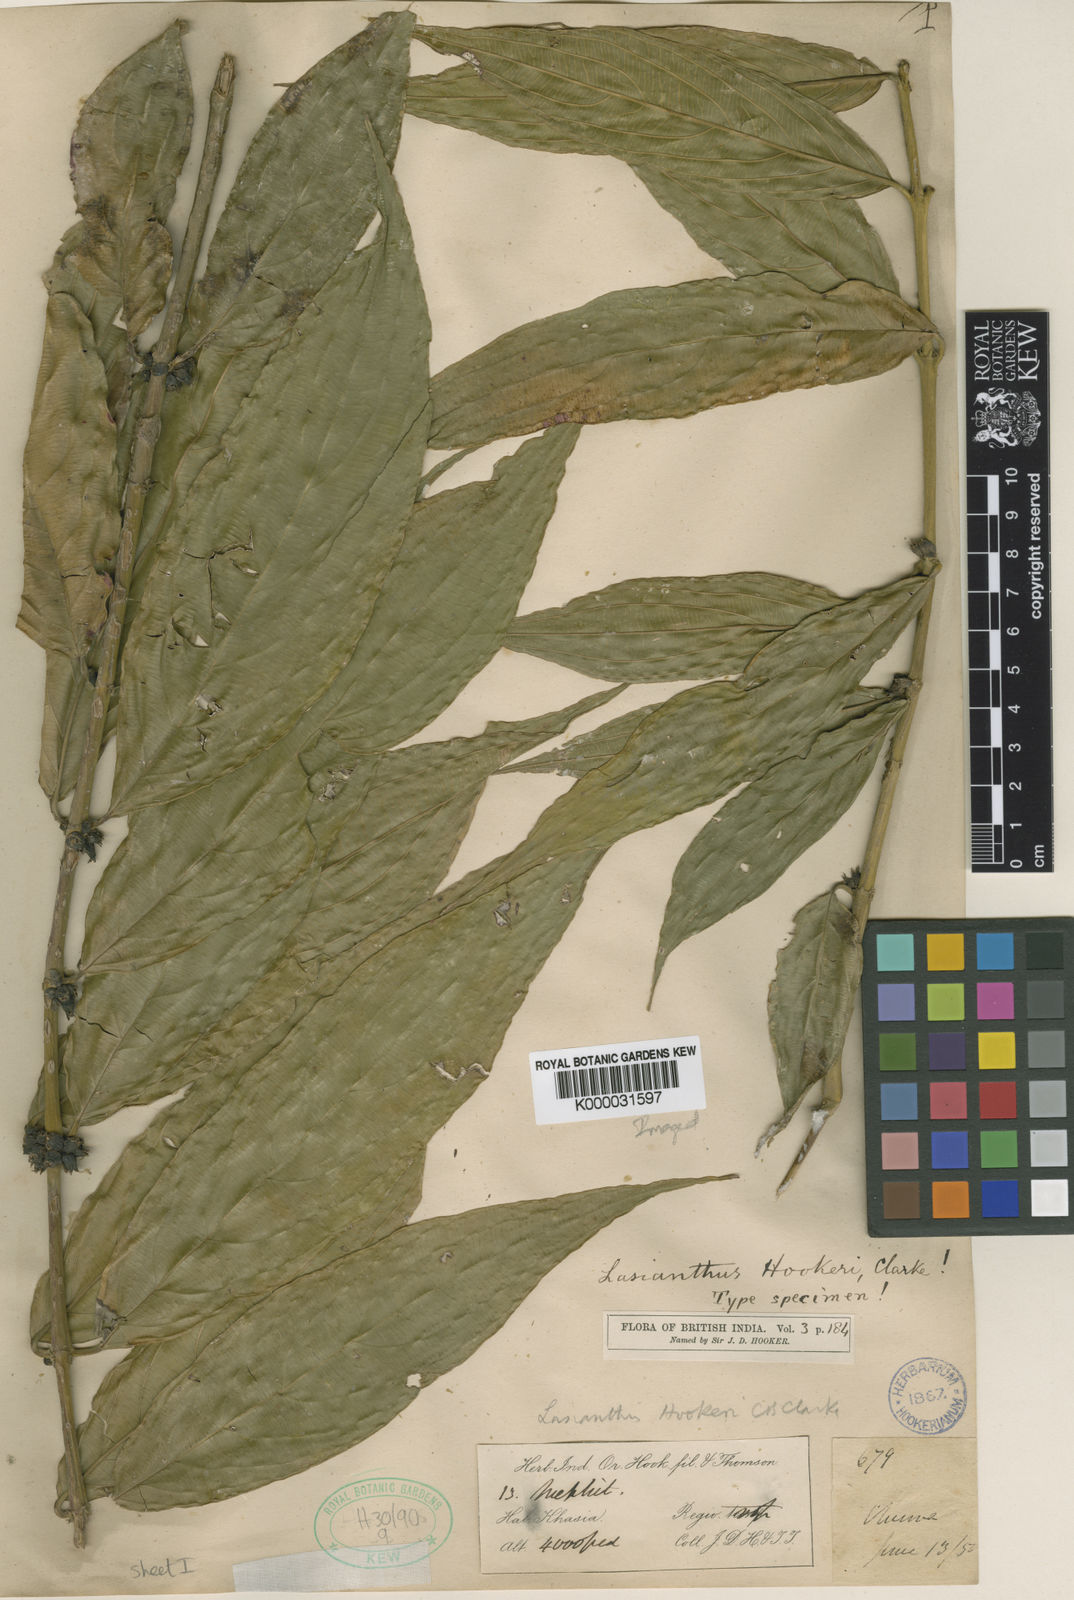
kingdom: Plantae
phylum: Tracheophyta
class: Magnoliopsida
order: Gentianales
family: Rubiaceae
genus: Lasianthus
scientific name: Lasianthus
